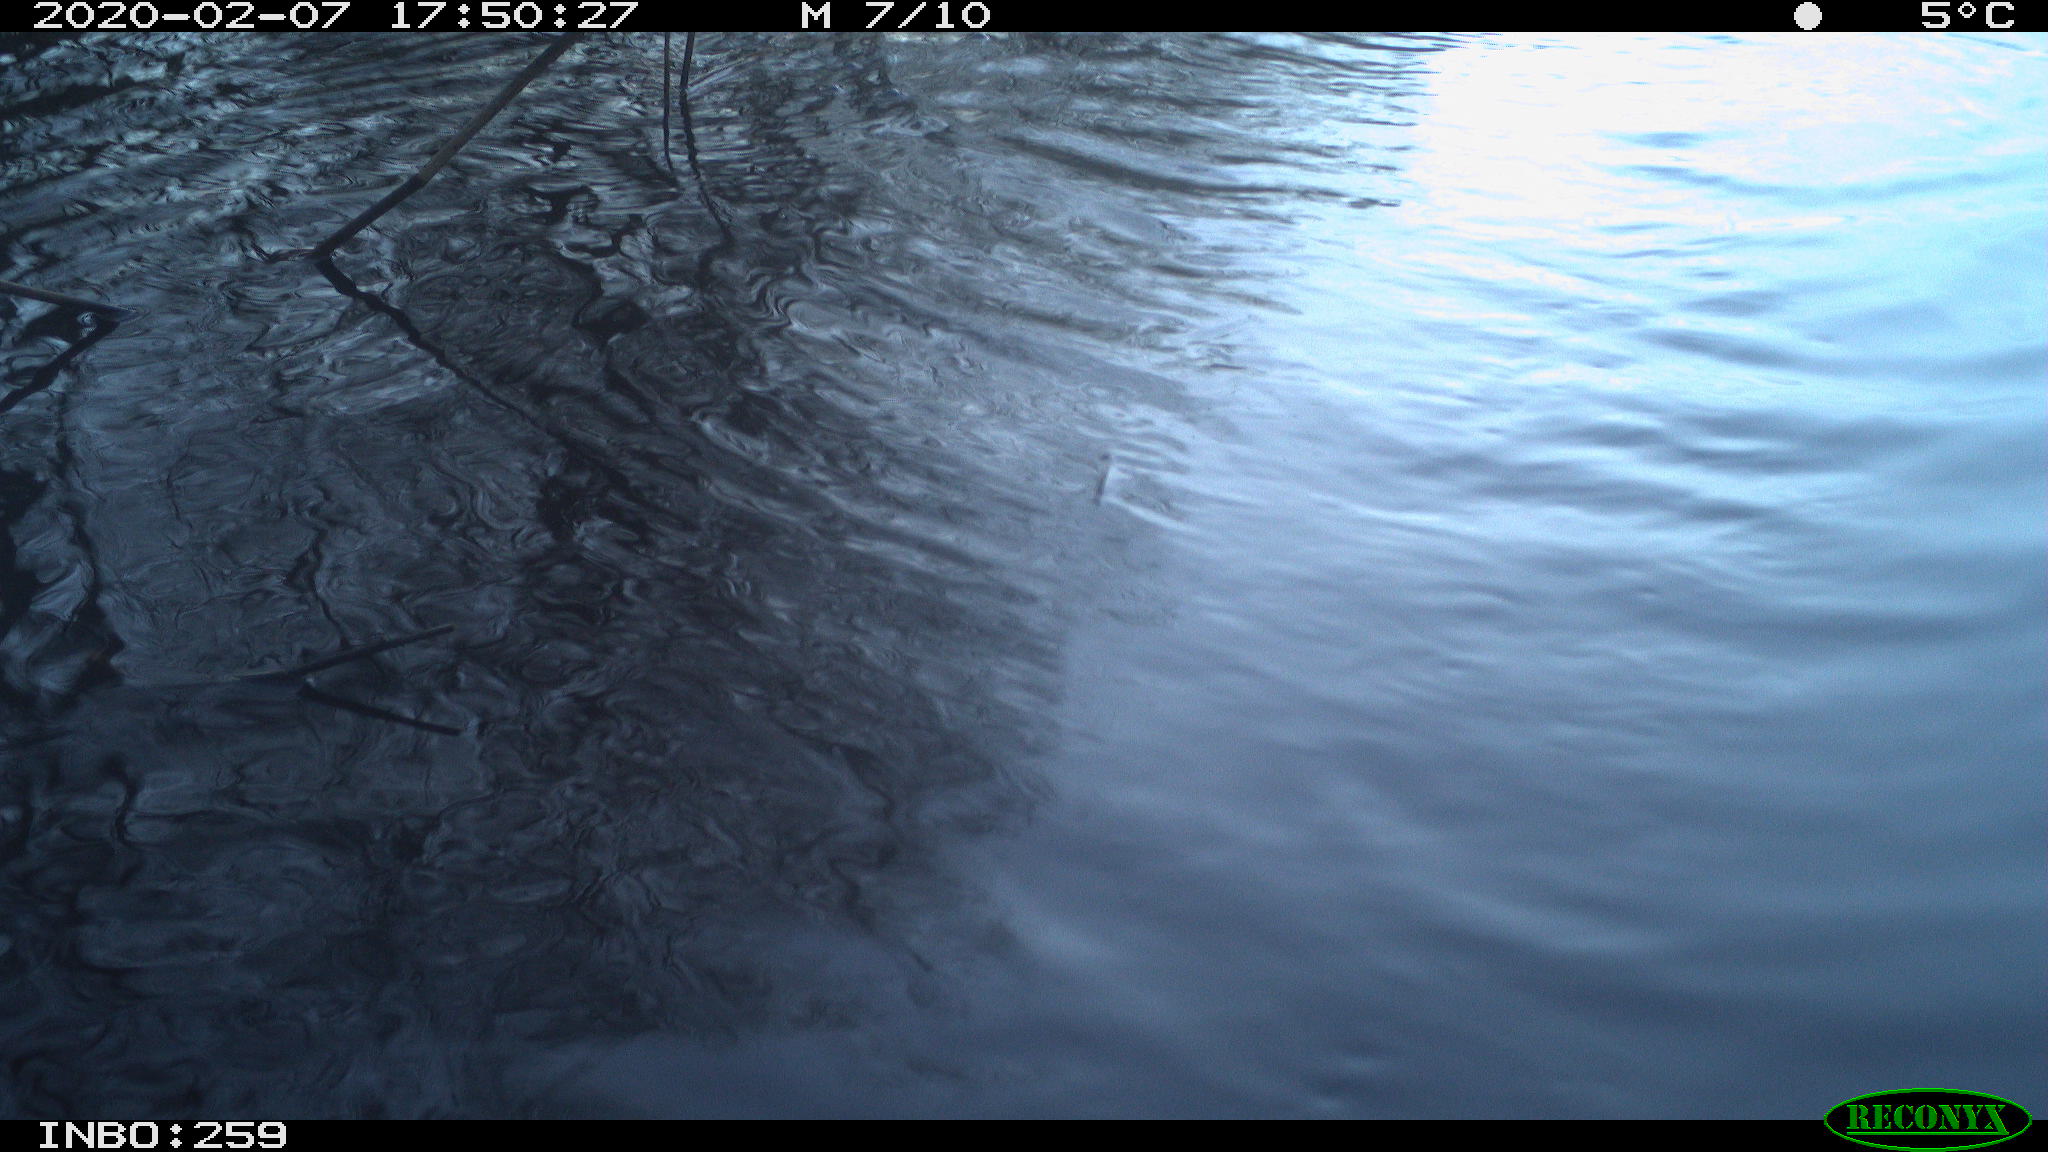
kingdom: Animalia
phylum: Chordata
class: Mammalia
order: Rodentia
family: Cricetidae
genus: Ondatra
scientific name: Ondatra zibethicus
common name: Muskrat
